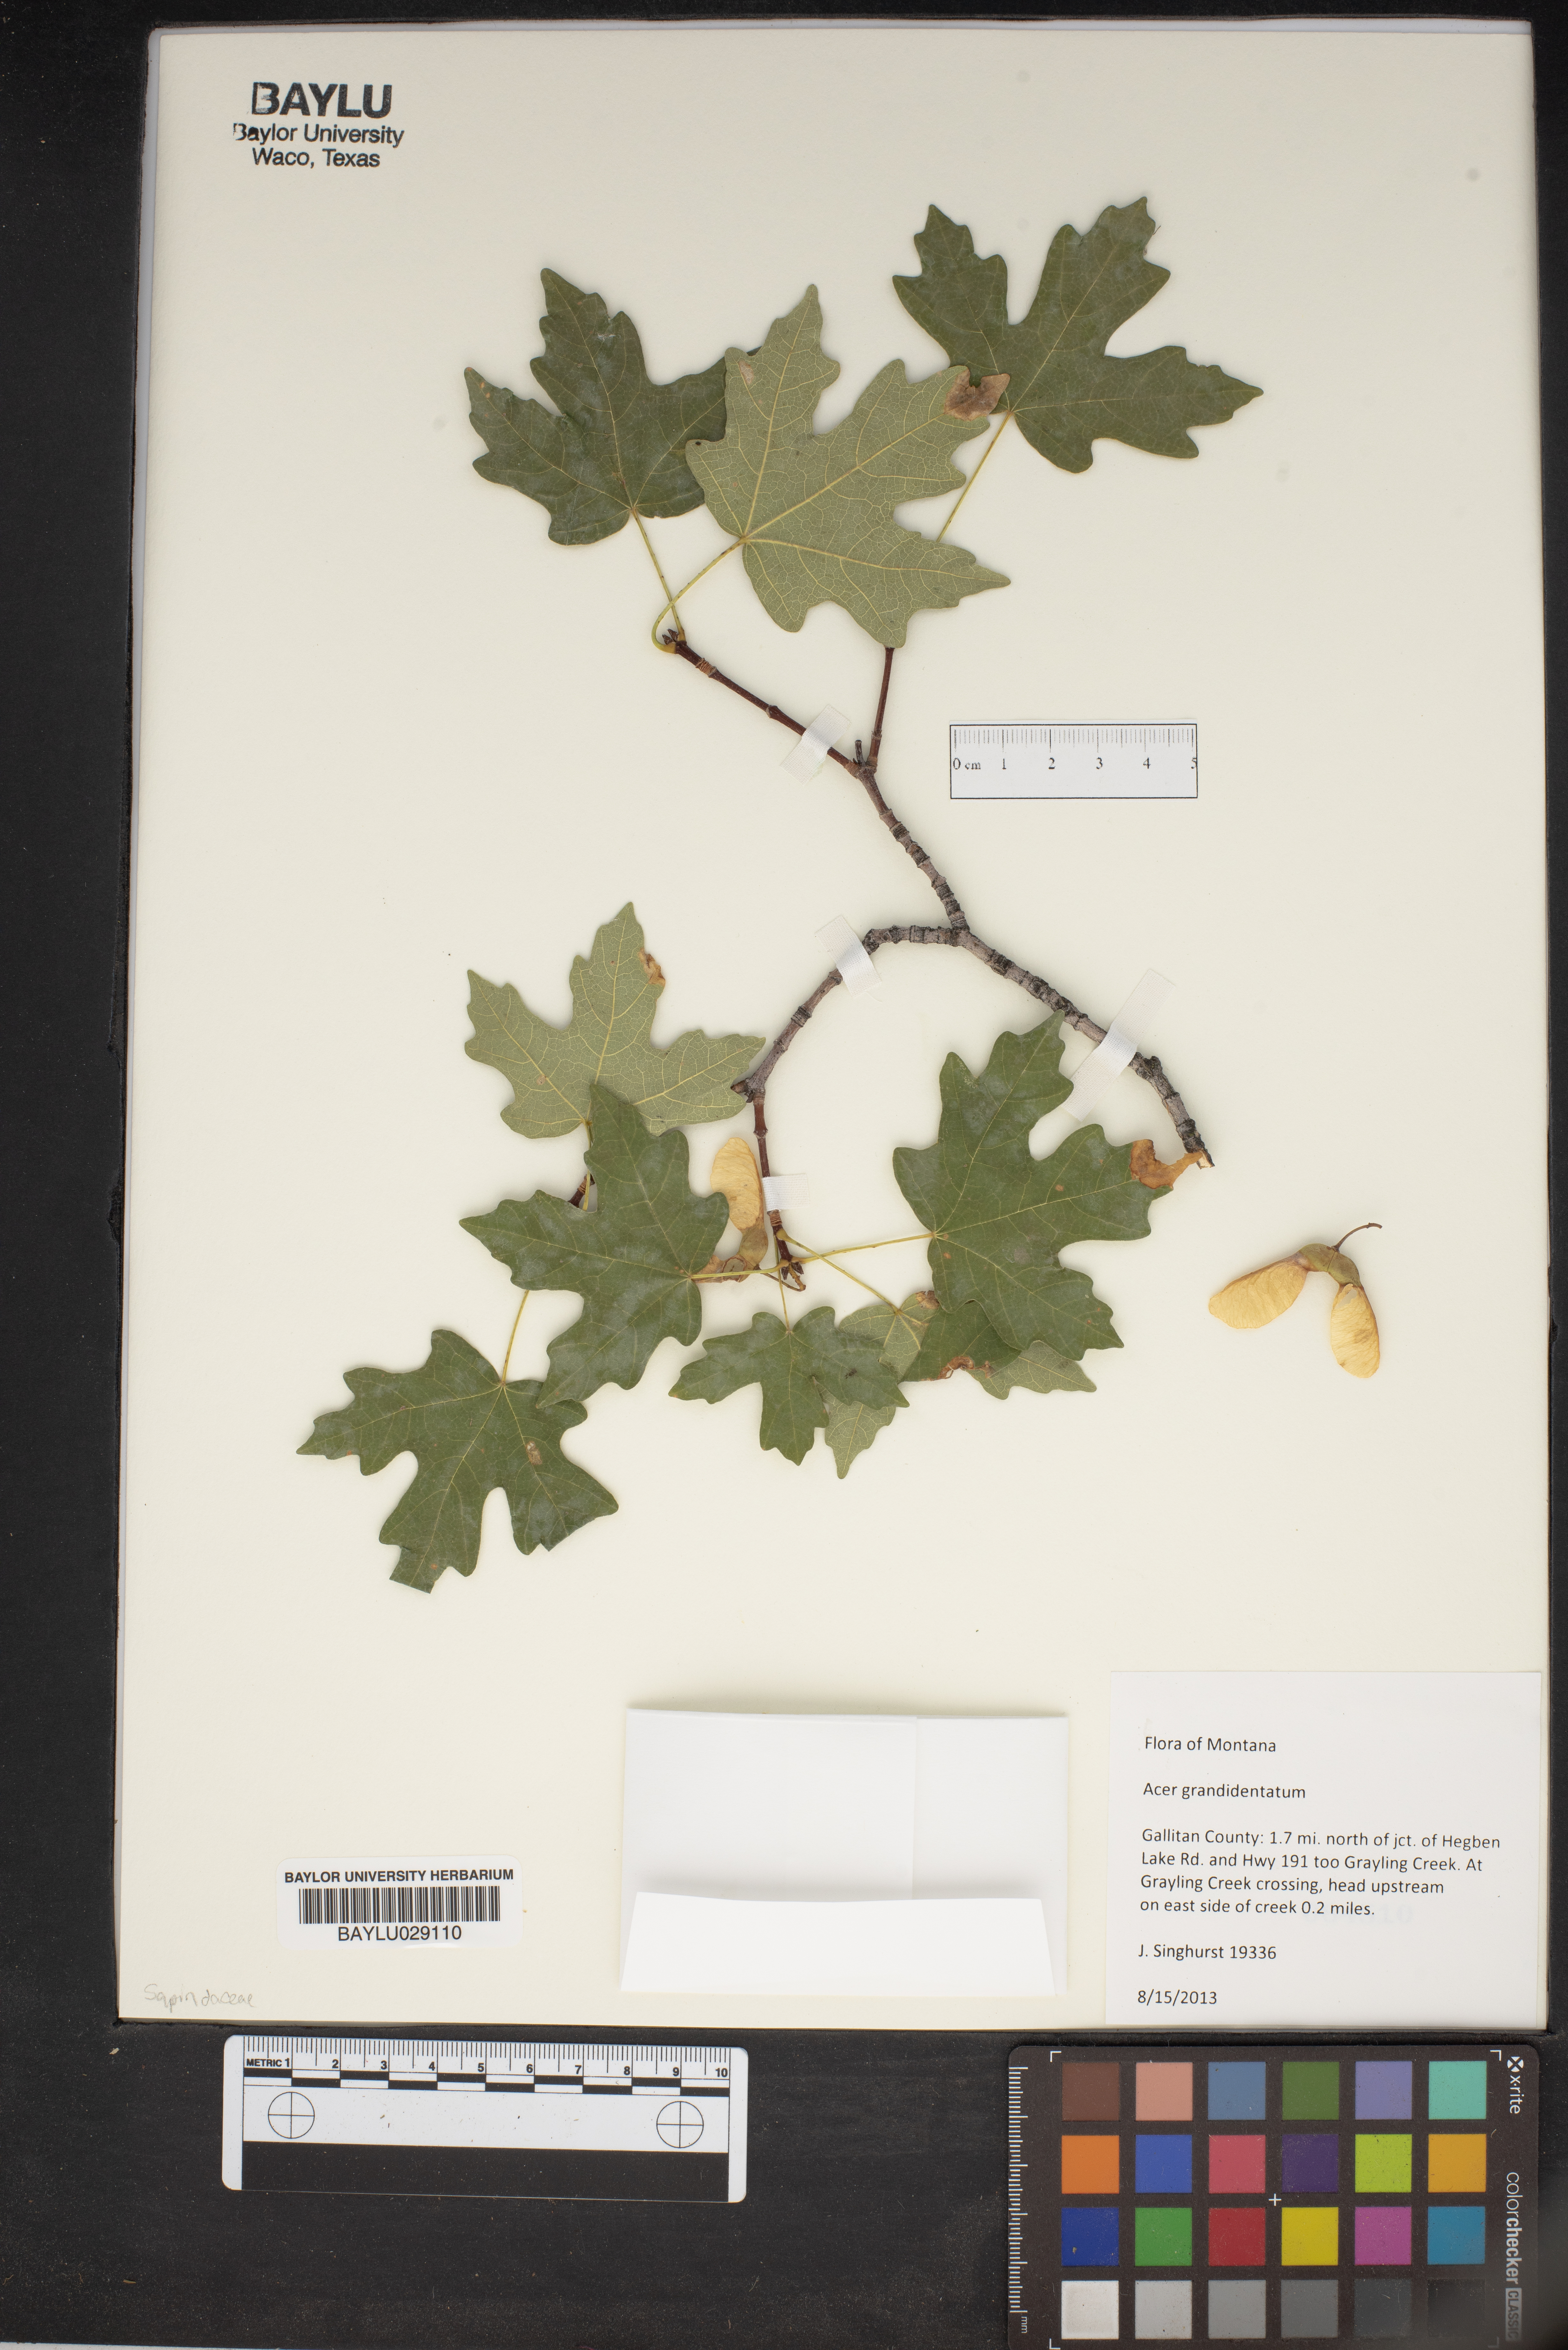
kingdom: Plantae
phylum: Tracheophyta
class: Magnoliopsida
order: Sapindales
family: Sapindaceae
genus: Acer
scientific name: Acer grandidentatum
